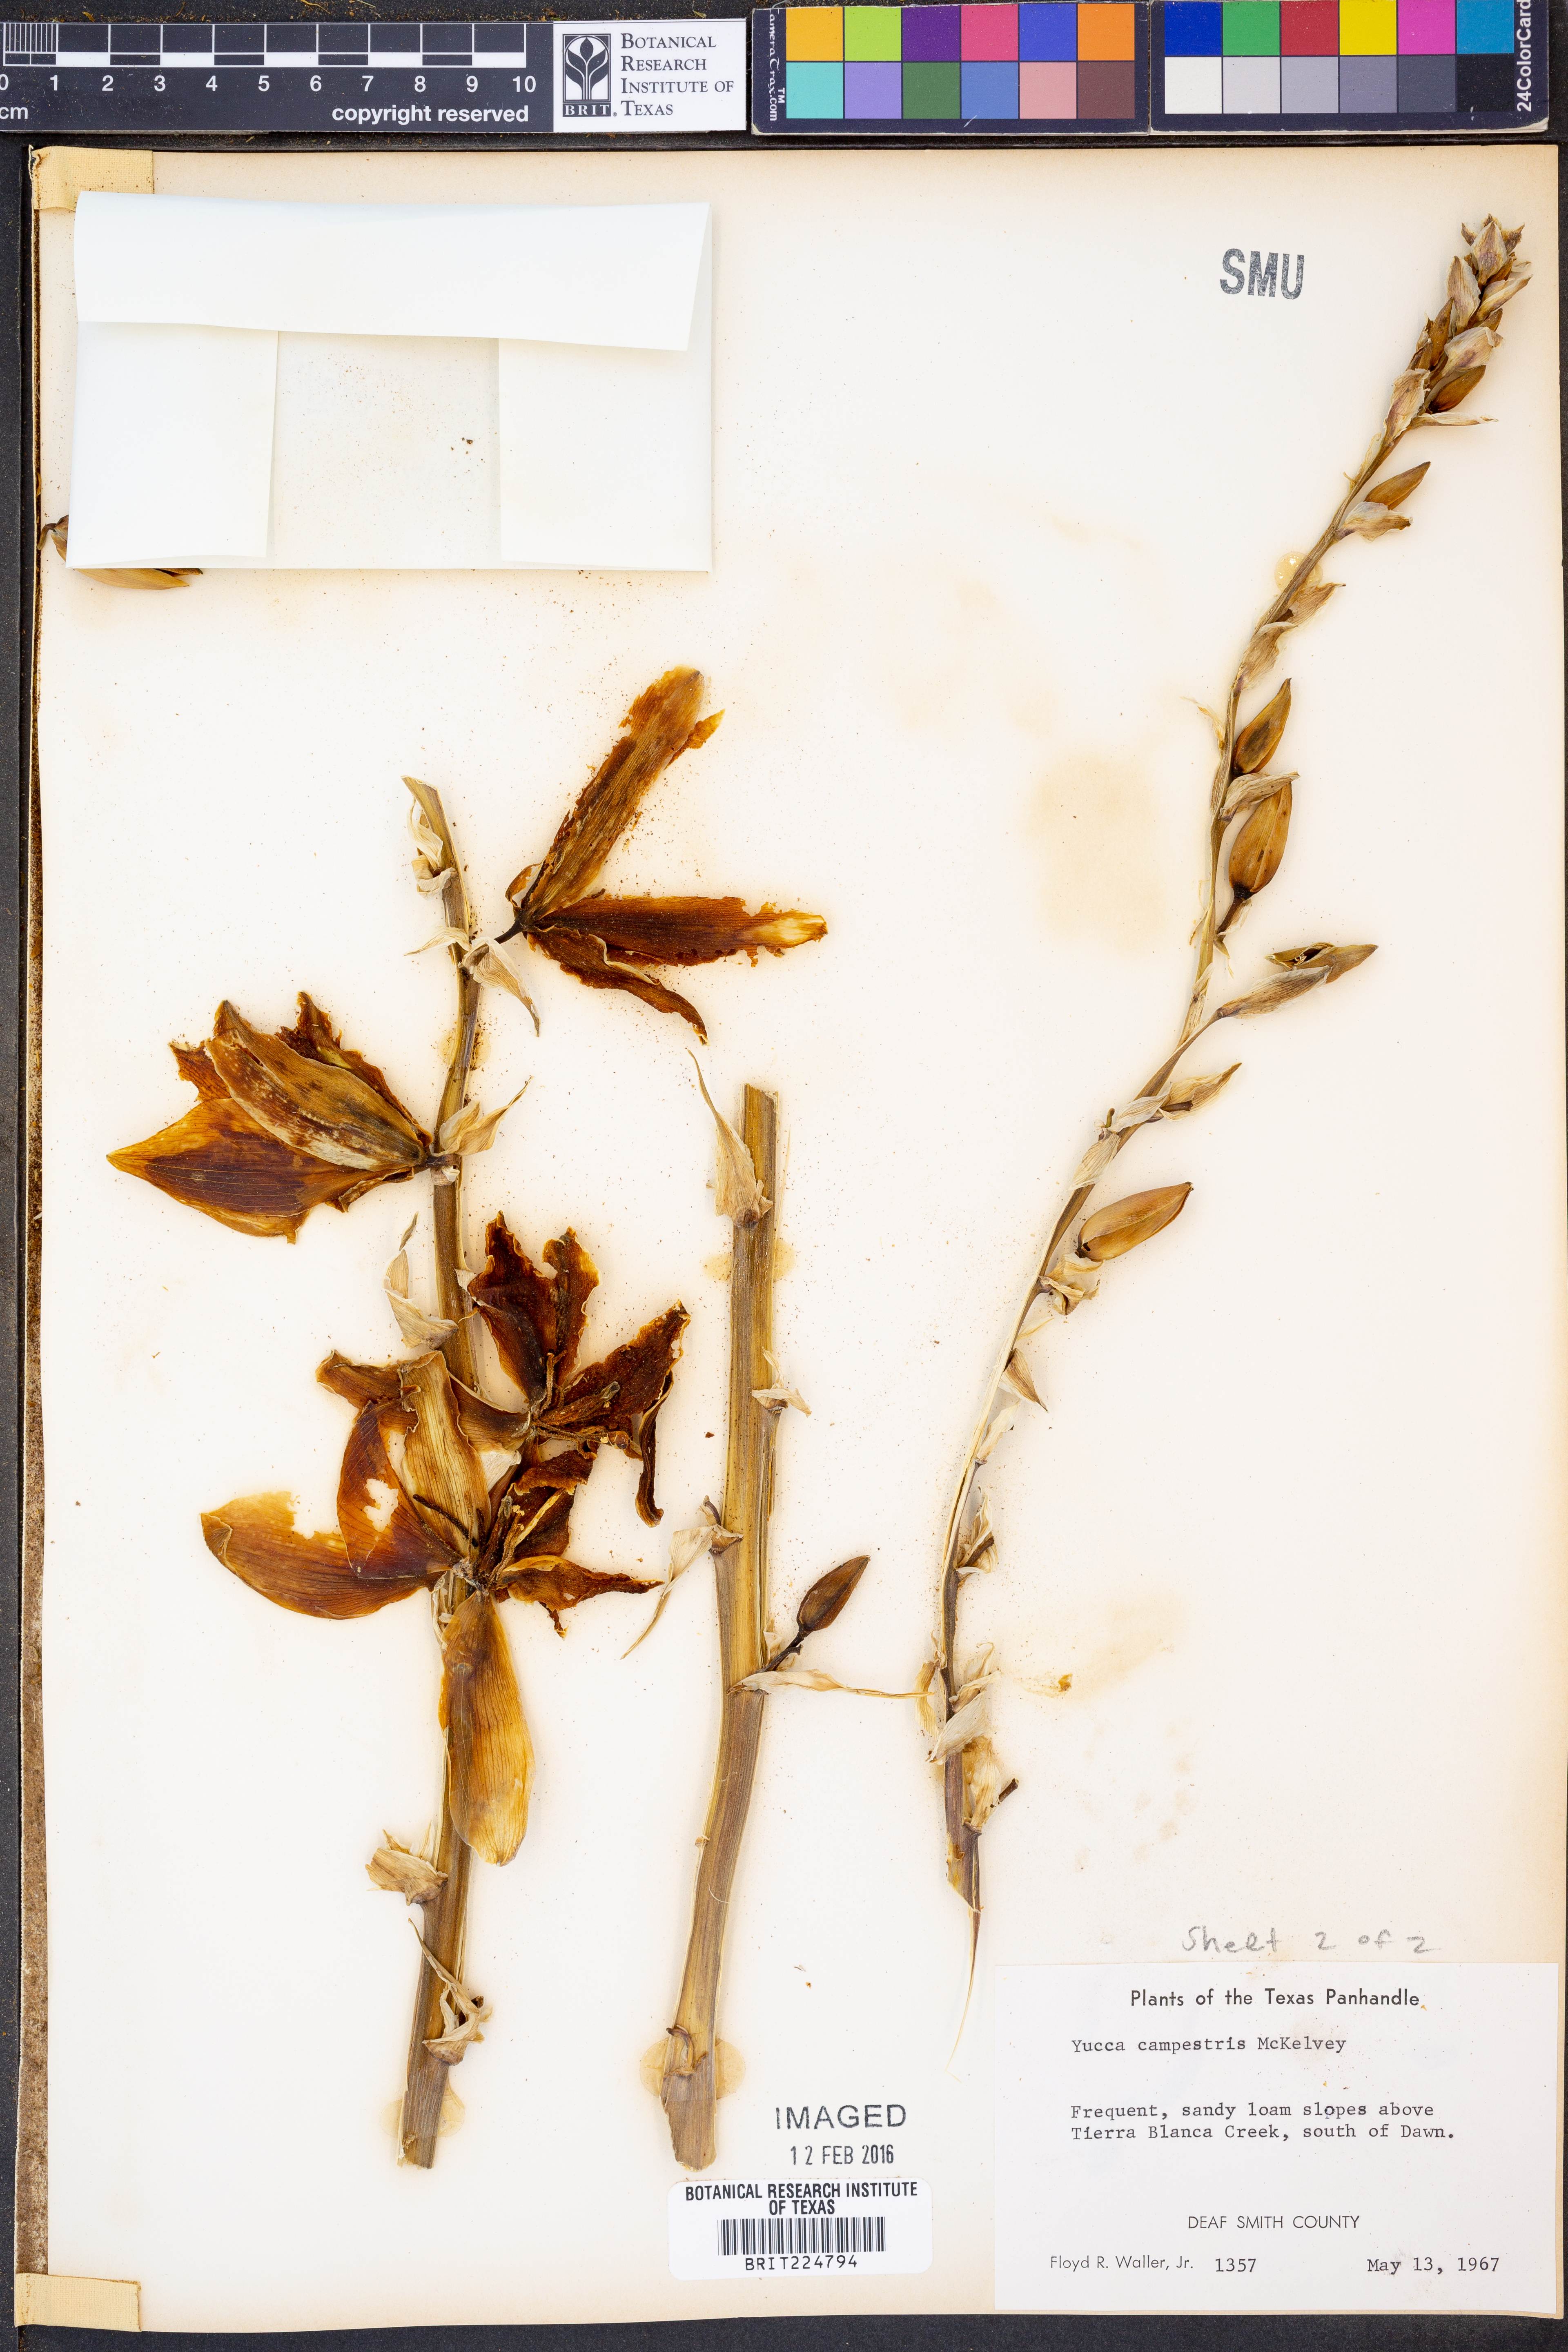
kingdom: Plantae
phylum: Tracheophyta
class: Liliopsida
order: Asparagales
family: Asparagaceae
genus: Yucca
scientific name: Yucca campestris
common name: Plains yucca
